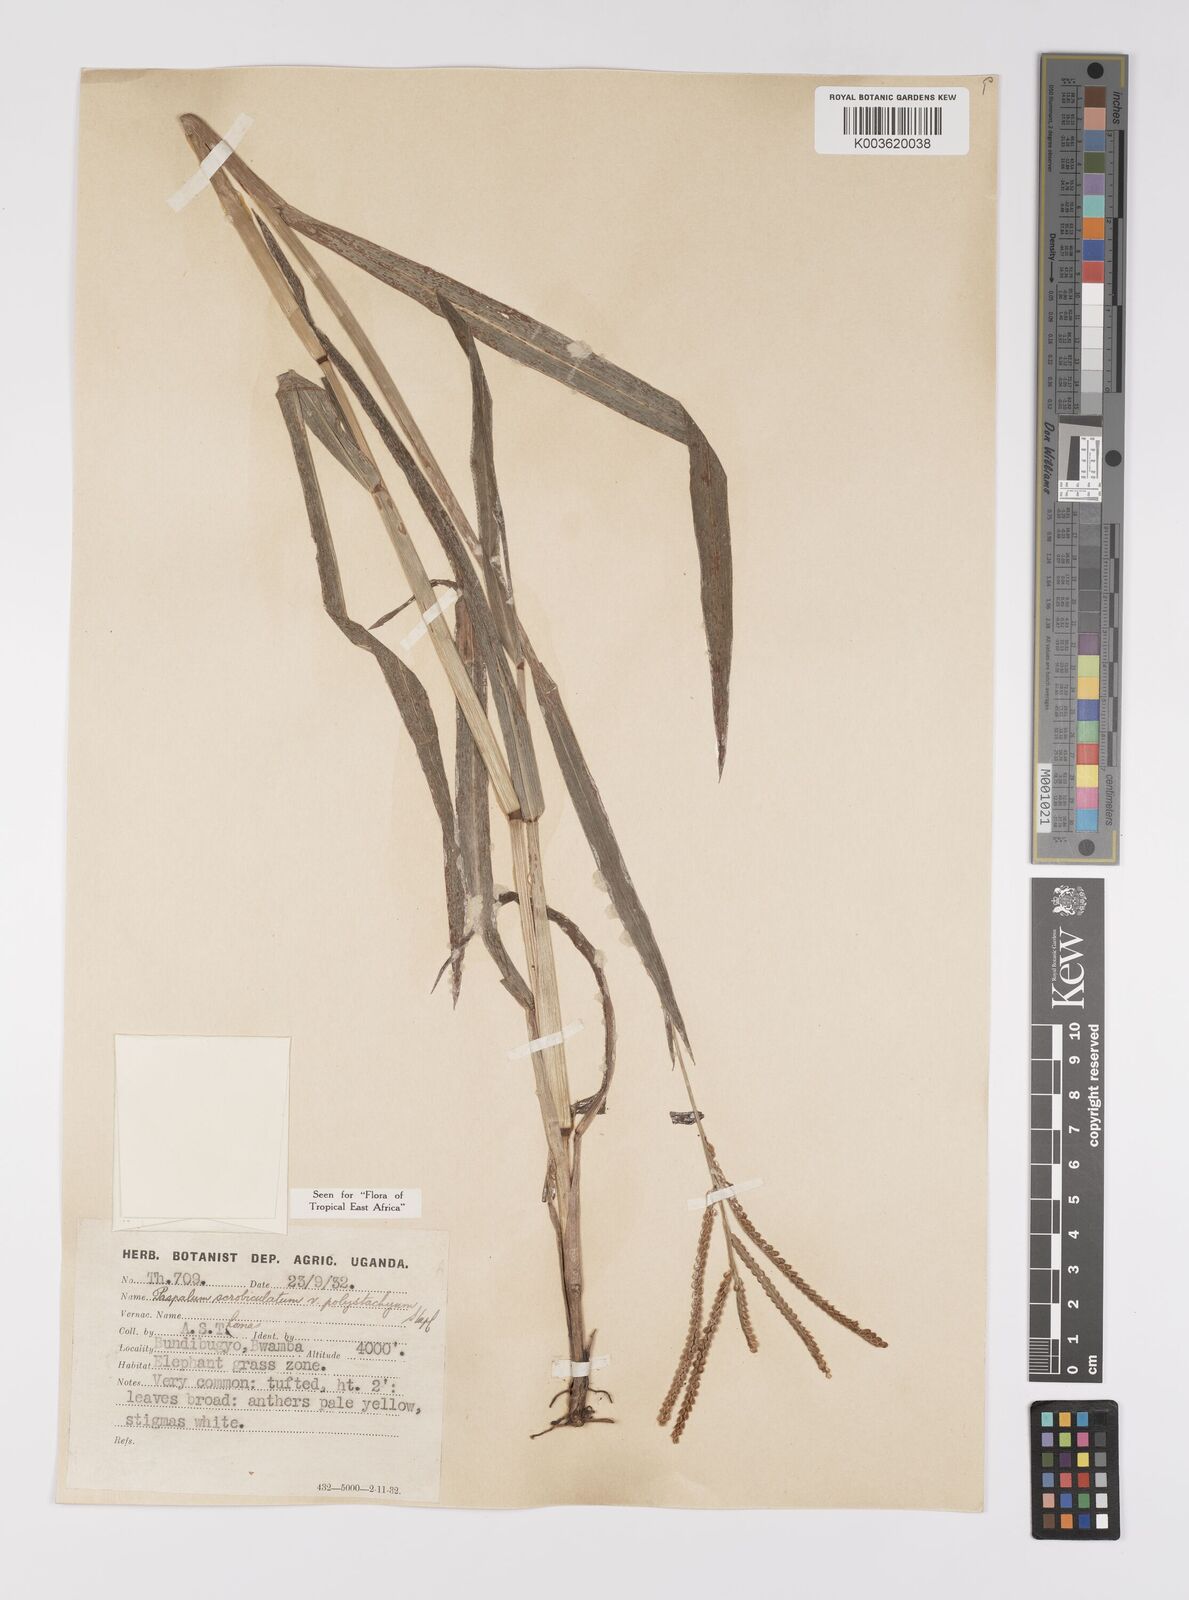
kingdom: Plantae
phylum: Tracheophyta
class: Liliopsida
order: Poales
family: Poaceae
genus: Paspalum
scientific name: Paspalum scrobiculatum
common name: Kodo millet
